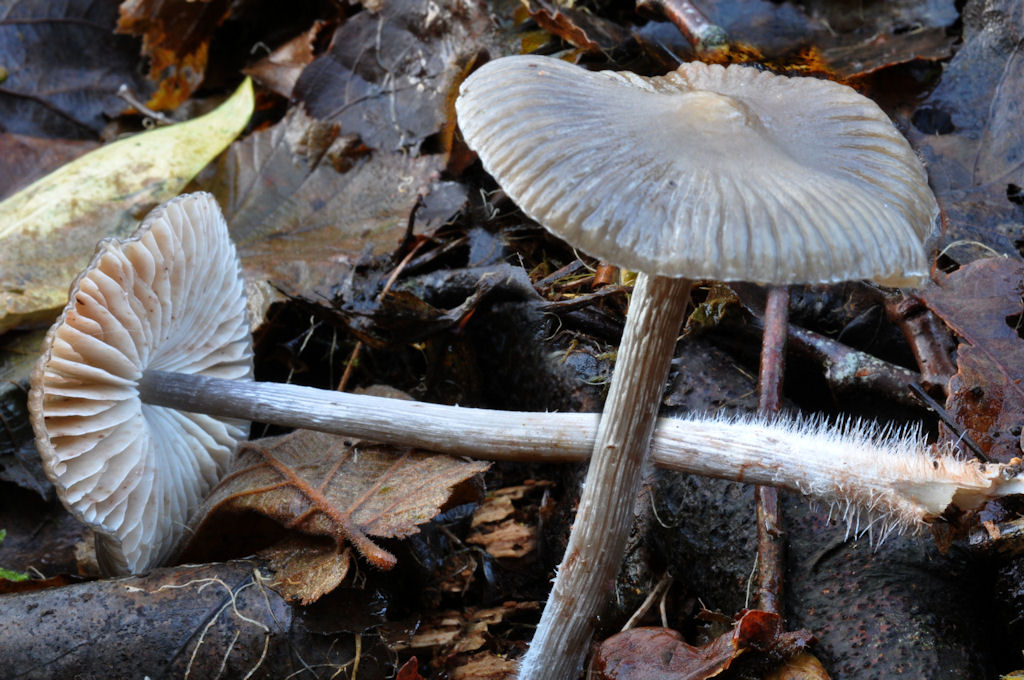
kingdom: Fungi
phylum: Basidiomycota
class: Agaricomycetes
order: Agaricales
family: Mycenaceae
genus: Mycena
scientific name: Mycena polygramma
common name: mangestribet huesvamp
